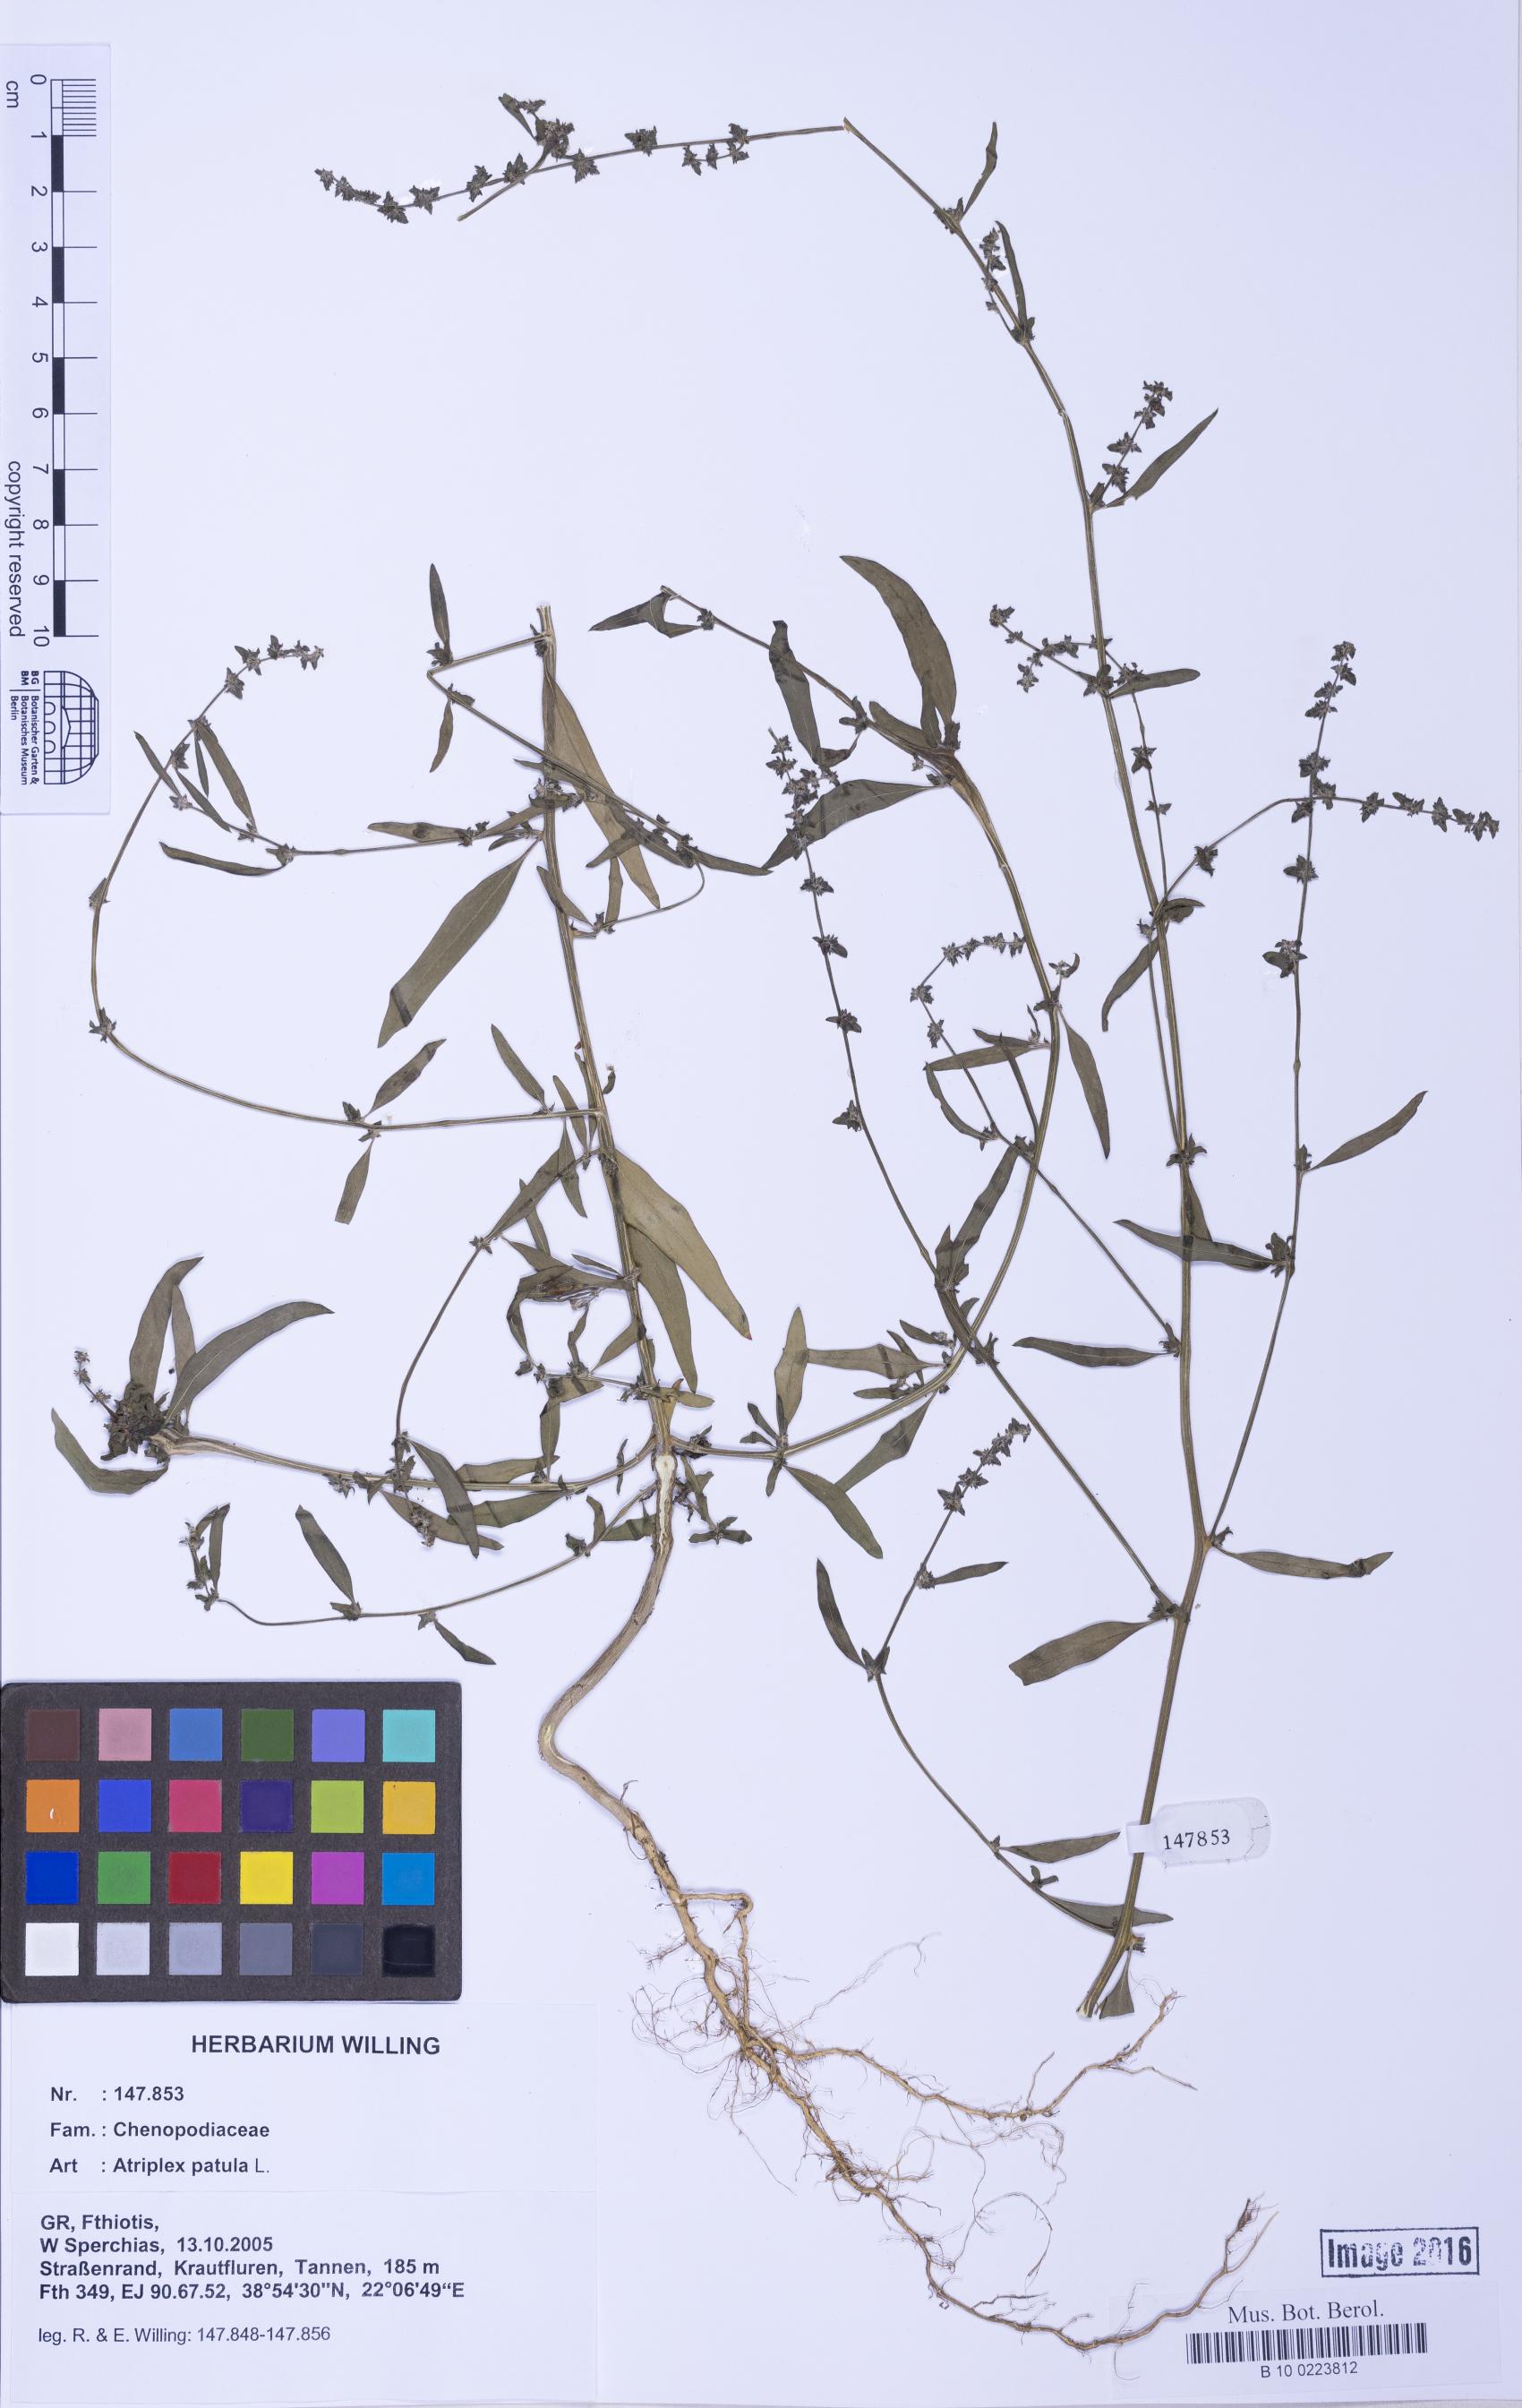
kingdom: Plantae
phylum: Tracheophyta
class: Magnoliopsida
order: Caryophyllales
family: Amaranthaceae
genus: Atriplex
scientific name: Atriplex patula
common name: Common orache
